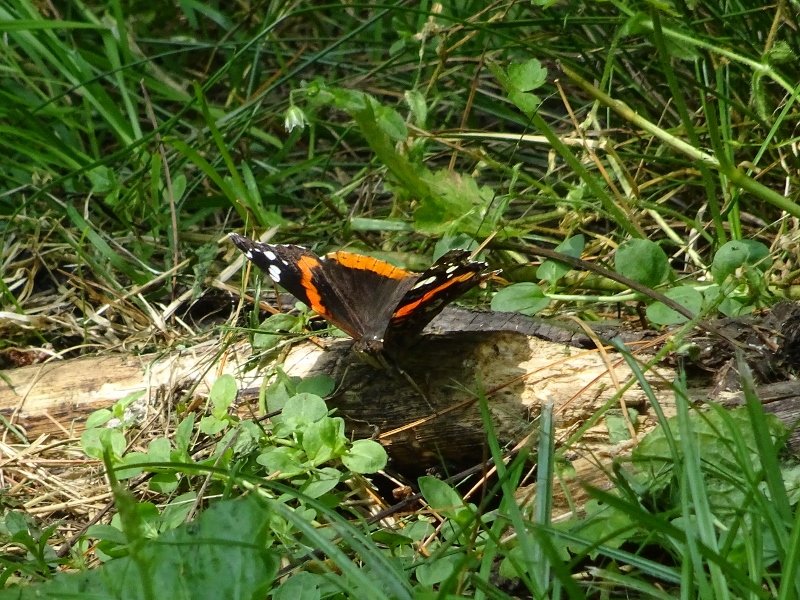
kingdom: Animalia
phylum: Arthropoda
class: Insecta
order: Lepidoptera
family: Nymphalidae
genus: Vanessa
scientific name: Vanessa atalanta
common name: Red Admiral
